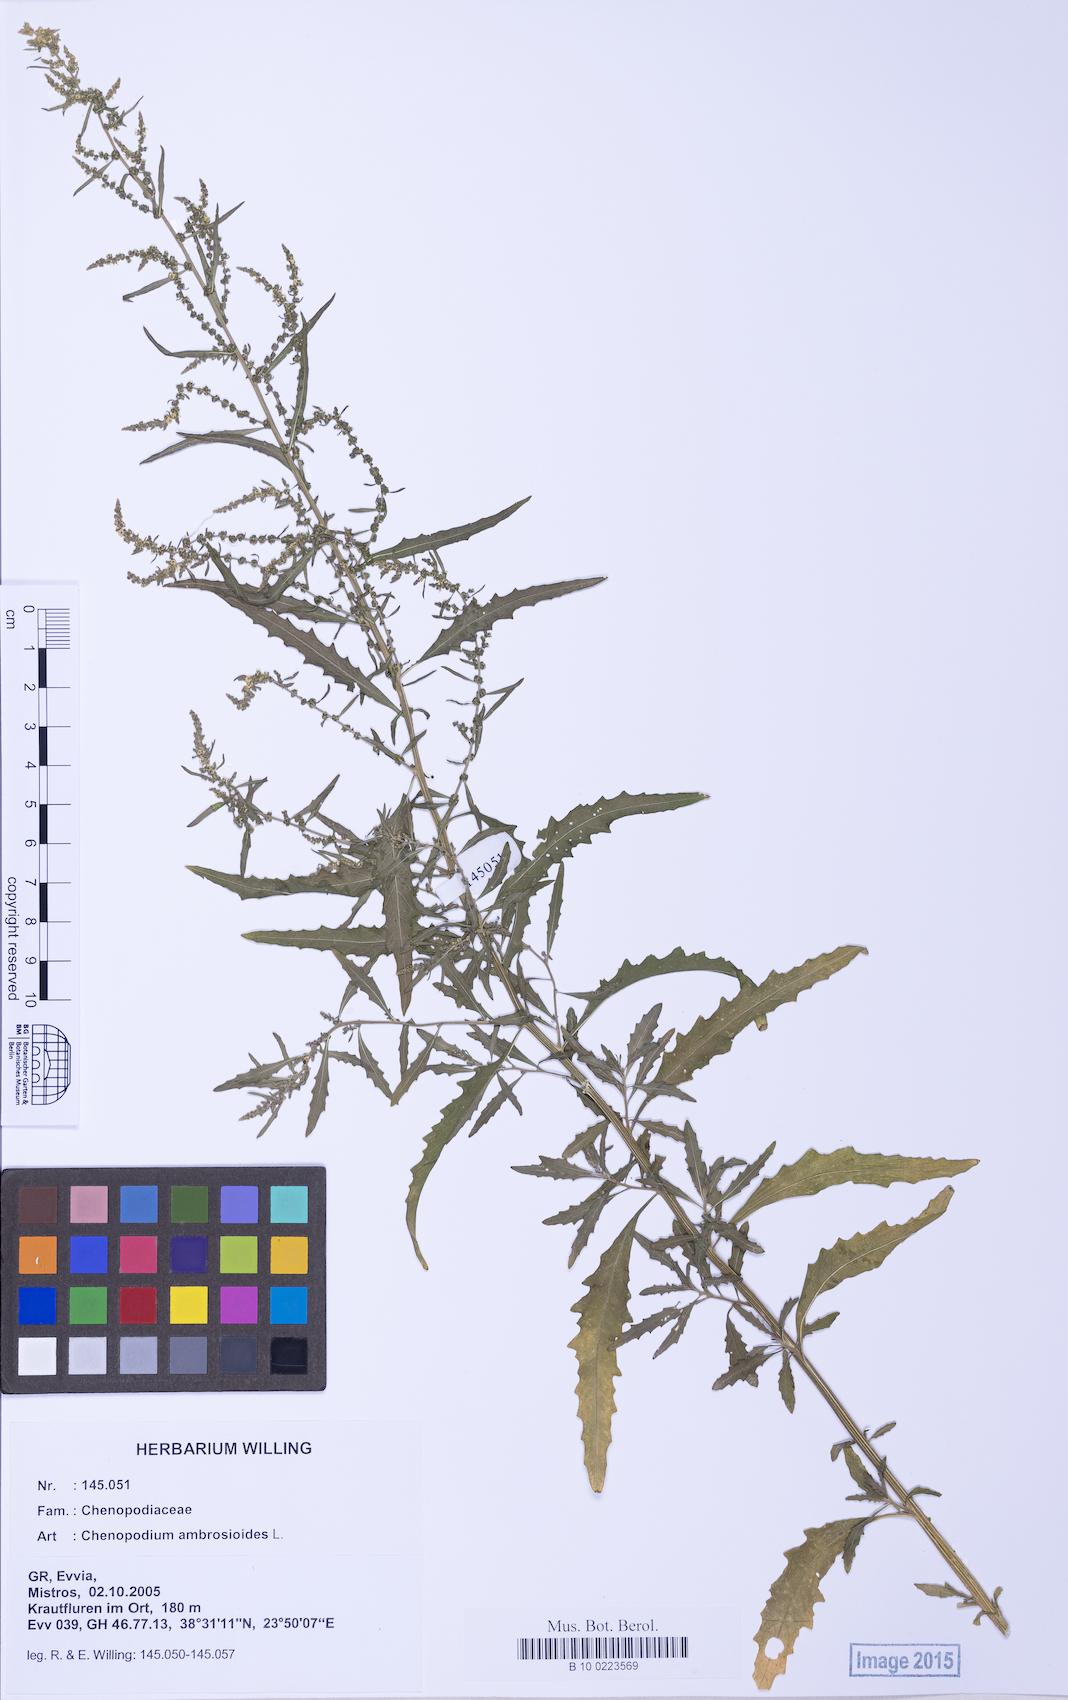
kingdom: Plantae
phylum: Tracheophyta
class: Magnoliopsida
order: Caryophyllales
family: Amaranthaceae
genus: Dysphania
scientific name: Dysphania ambrosioides
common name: Wormseed
